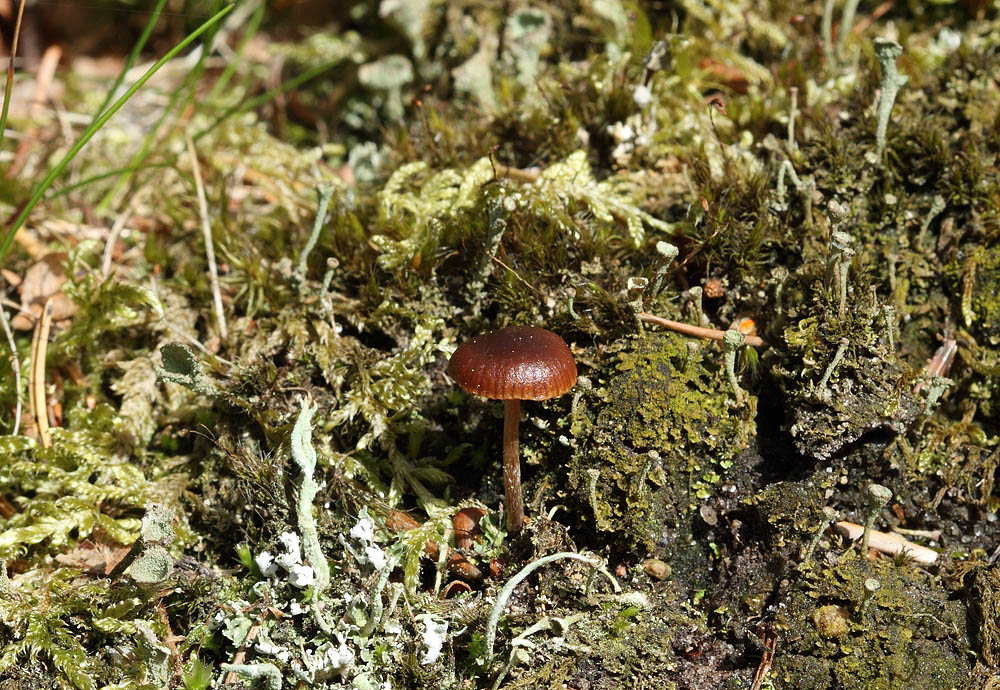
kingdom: Fungi
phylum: Basidiomycota
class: Agaricomycetes
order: Agaricales
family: Strophariaceae
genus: Deconica
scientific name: Deconica montana
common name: rødbrun stråhat
